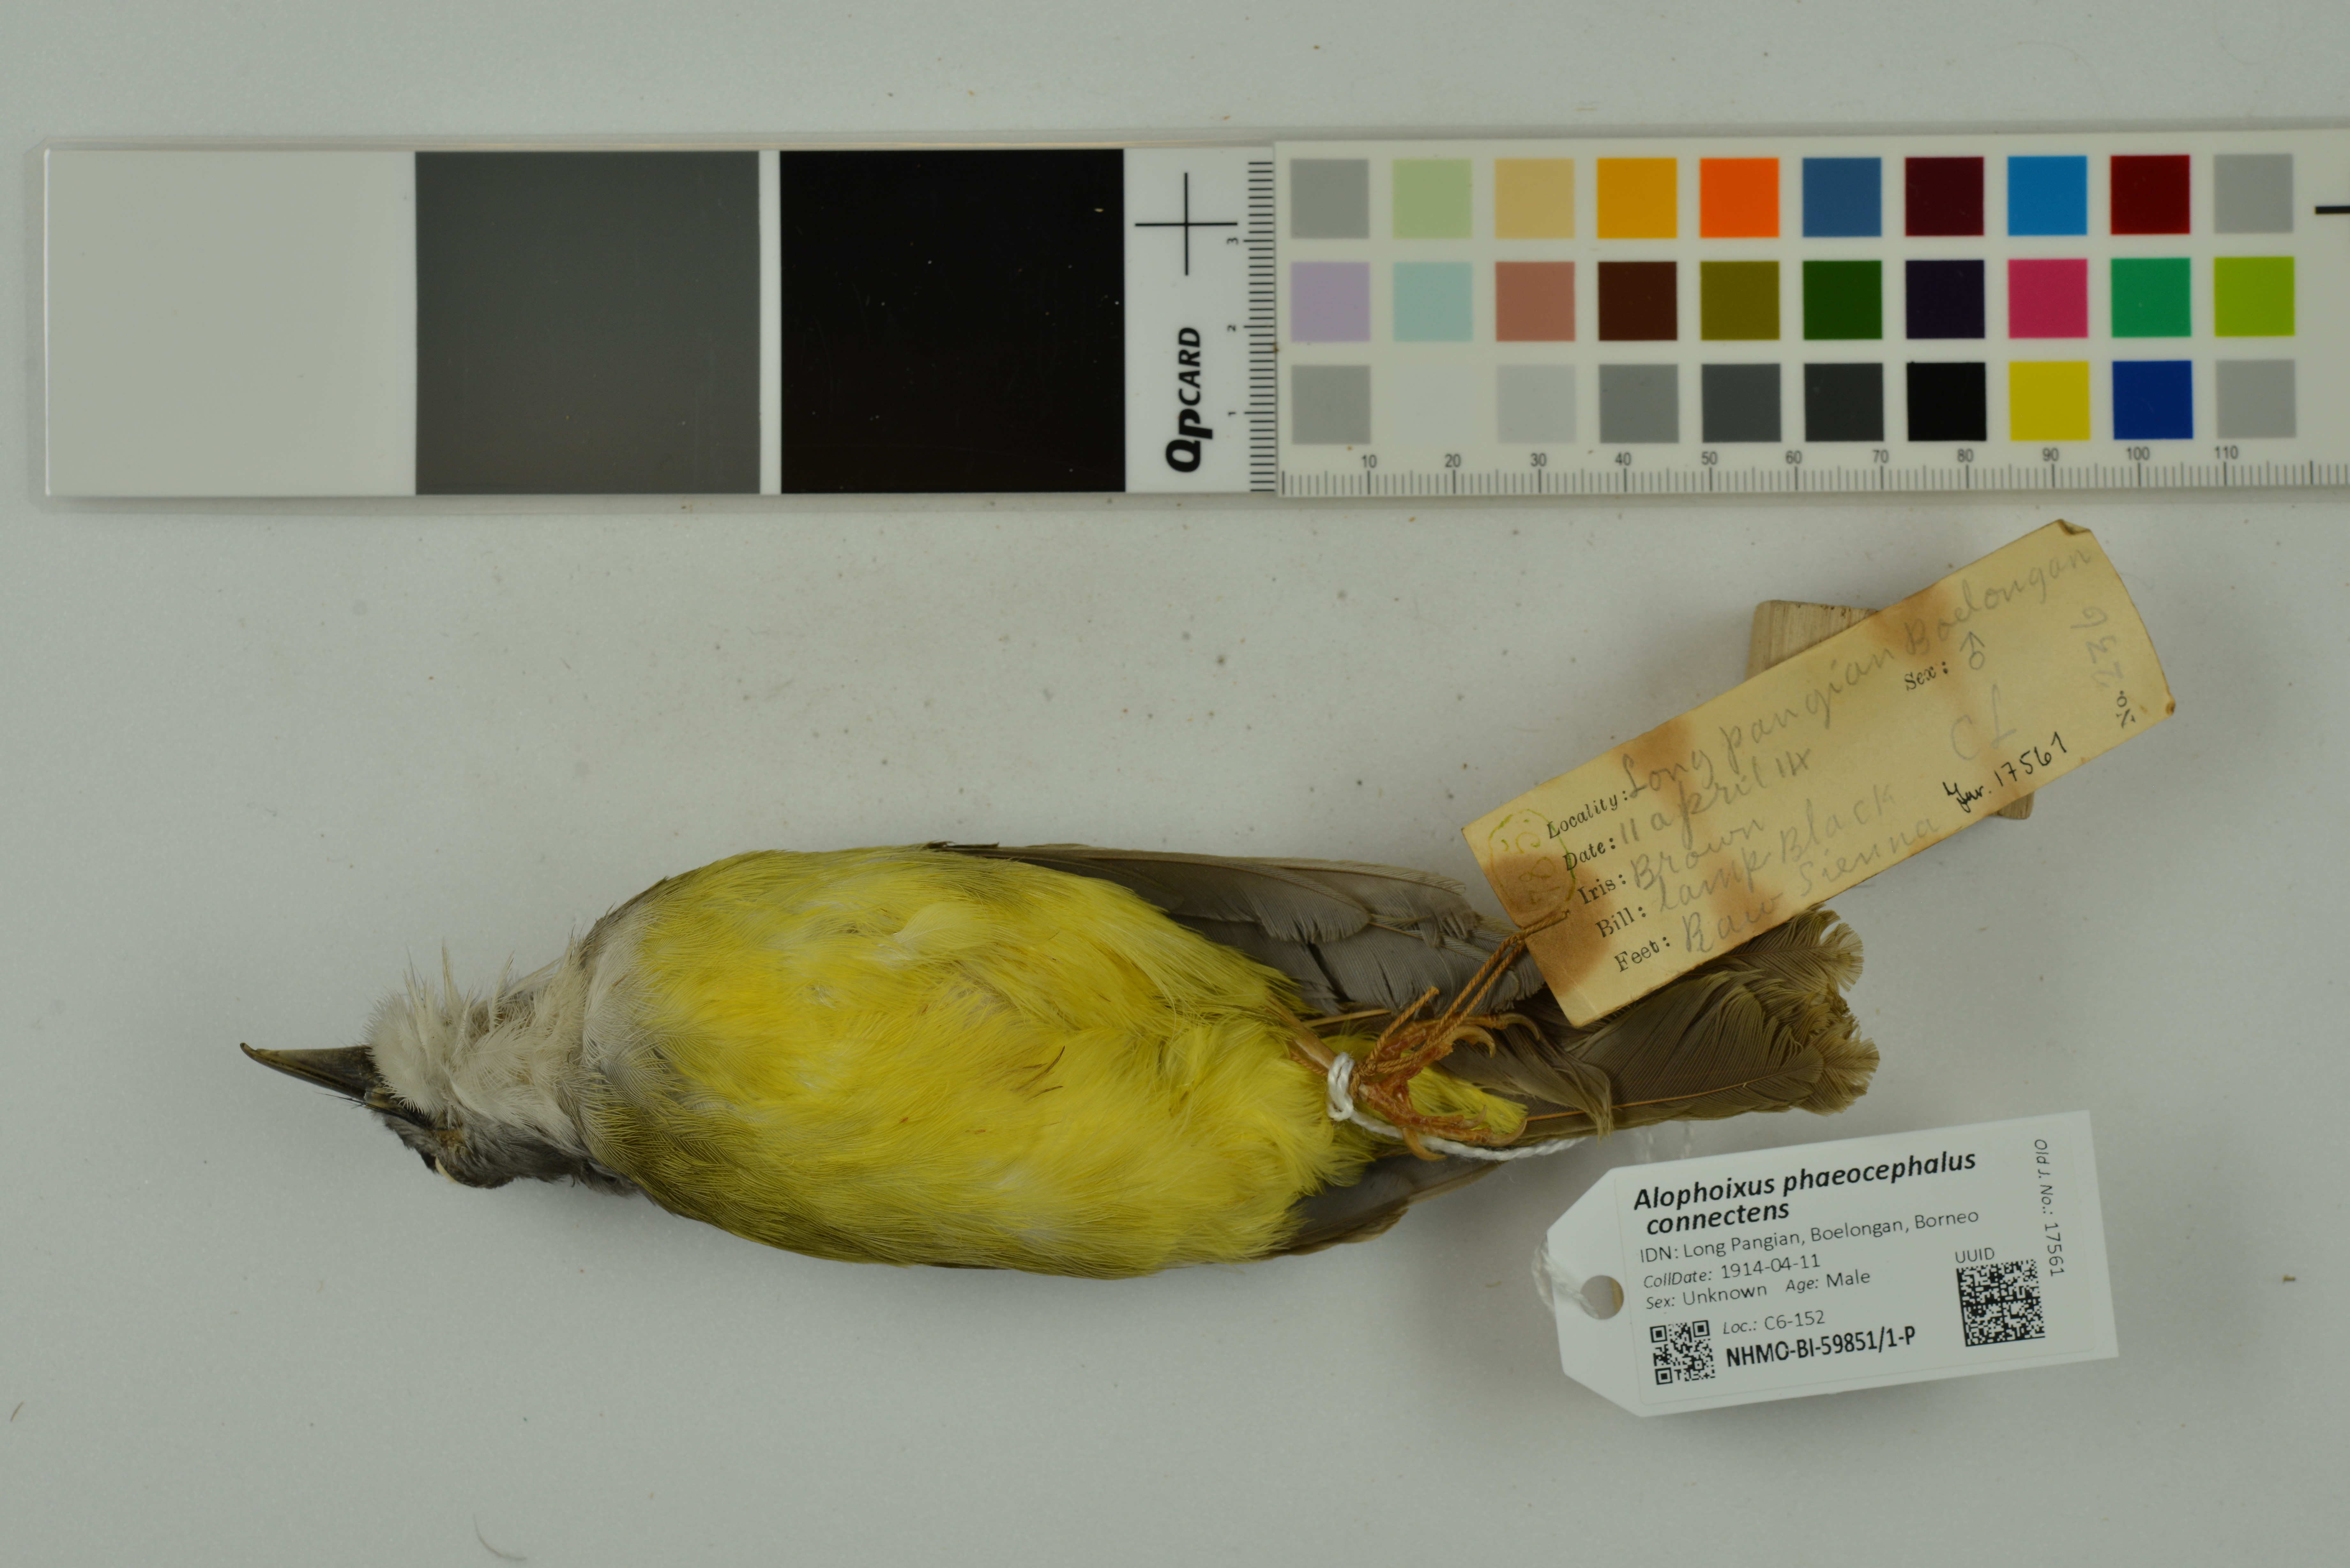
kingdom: Animalia
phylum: Chordata
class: Aves
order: Passeriformes
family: Pycnonotidae
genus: Alophoixus
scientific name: Alophoixus phaeocephalus
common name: Yellow-bellied bulbul
